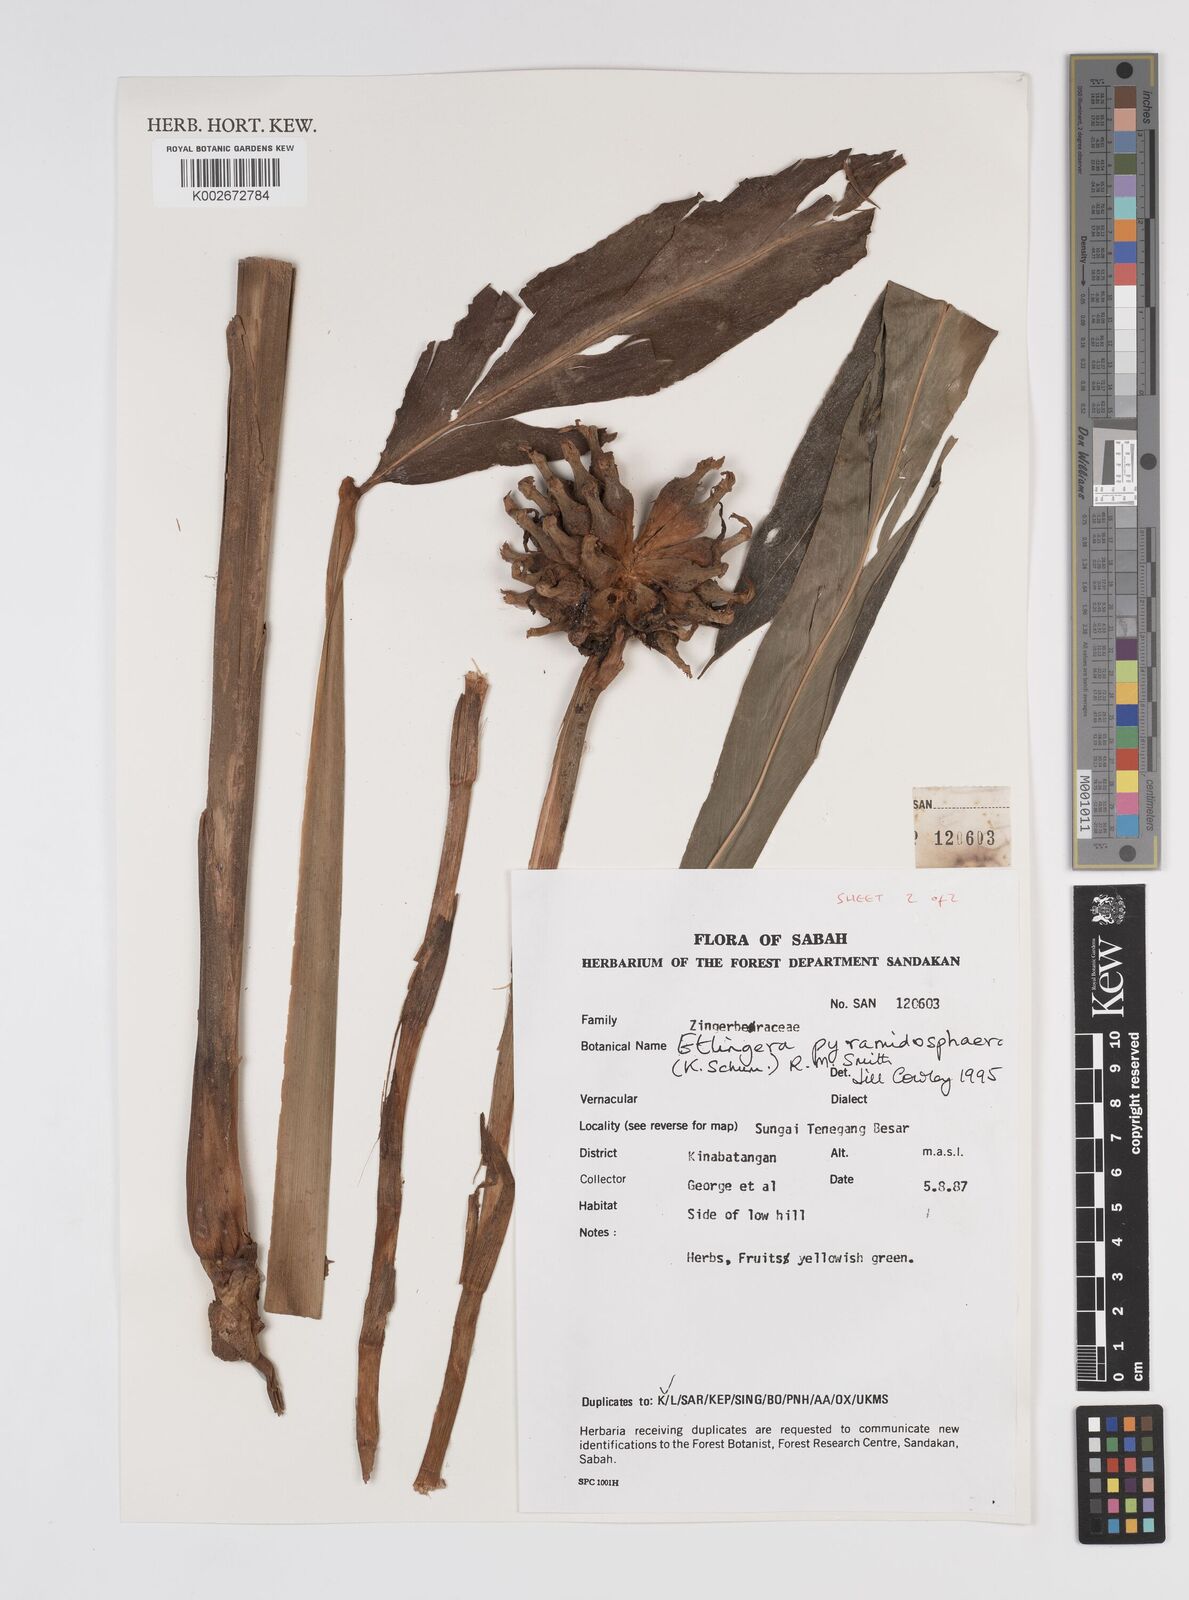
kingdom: Plantae
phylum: Tracheophyta
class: Liliopsida
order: Zingiberales
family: Zingiberaceae
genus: Etlingera
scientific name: Etlingera pyramidosphaera
